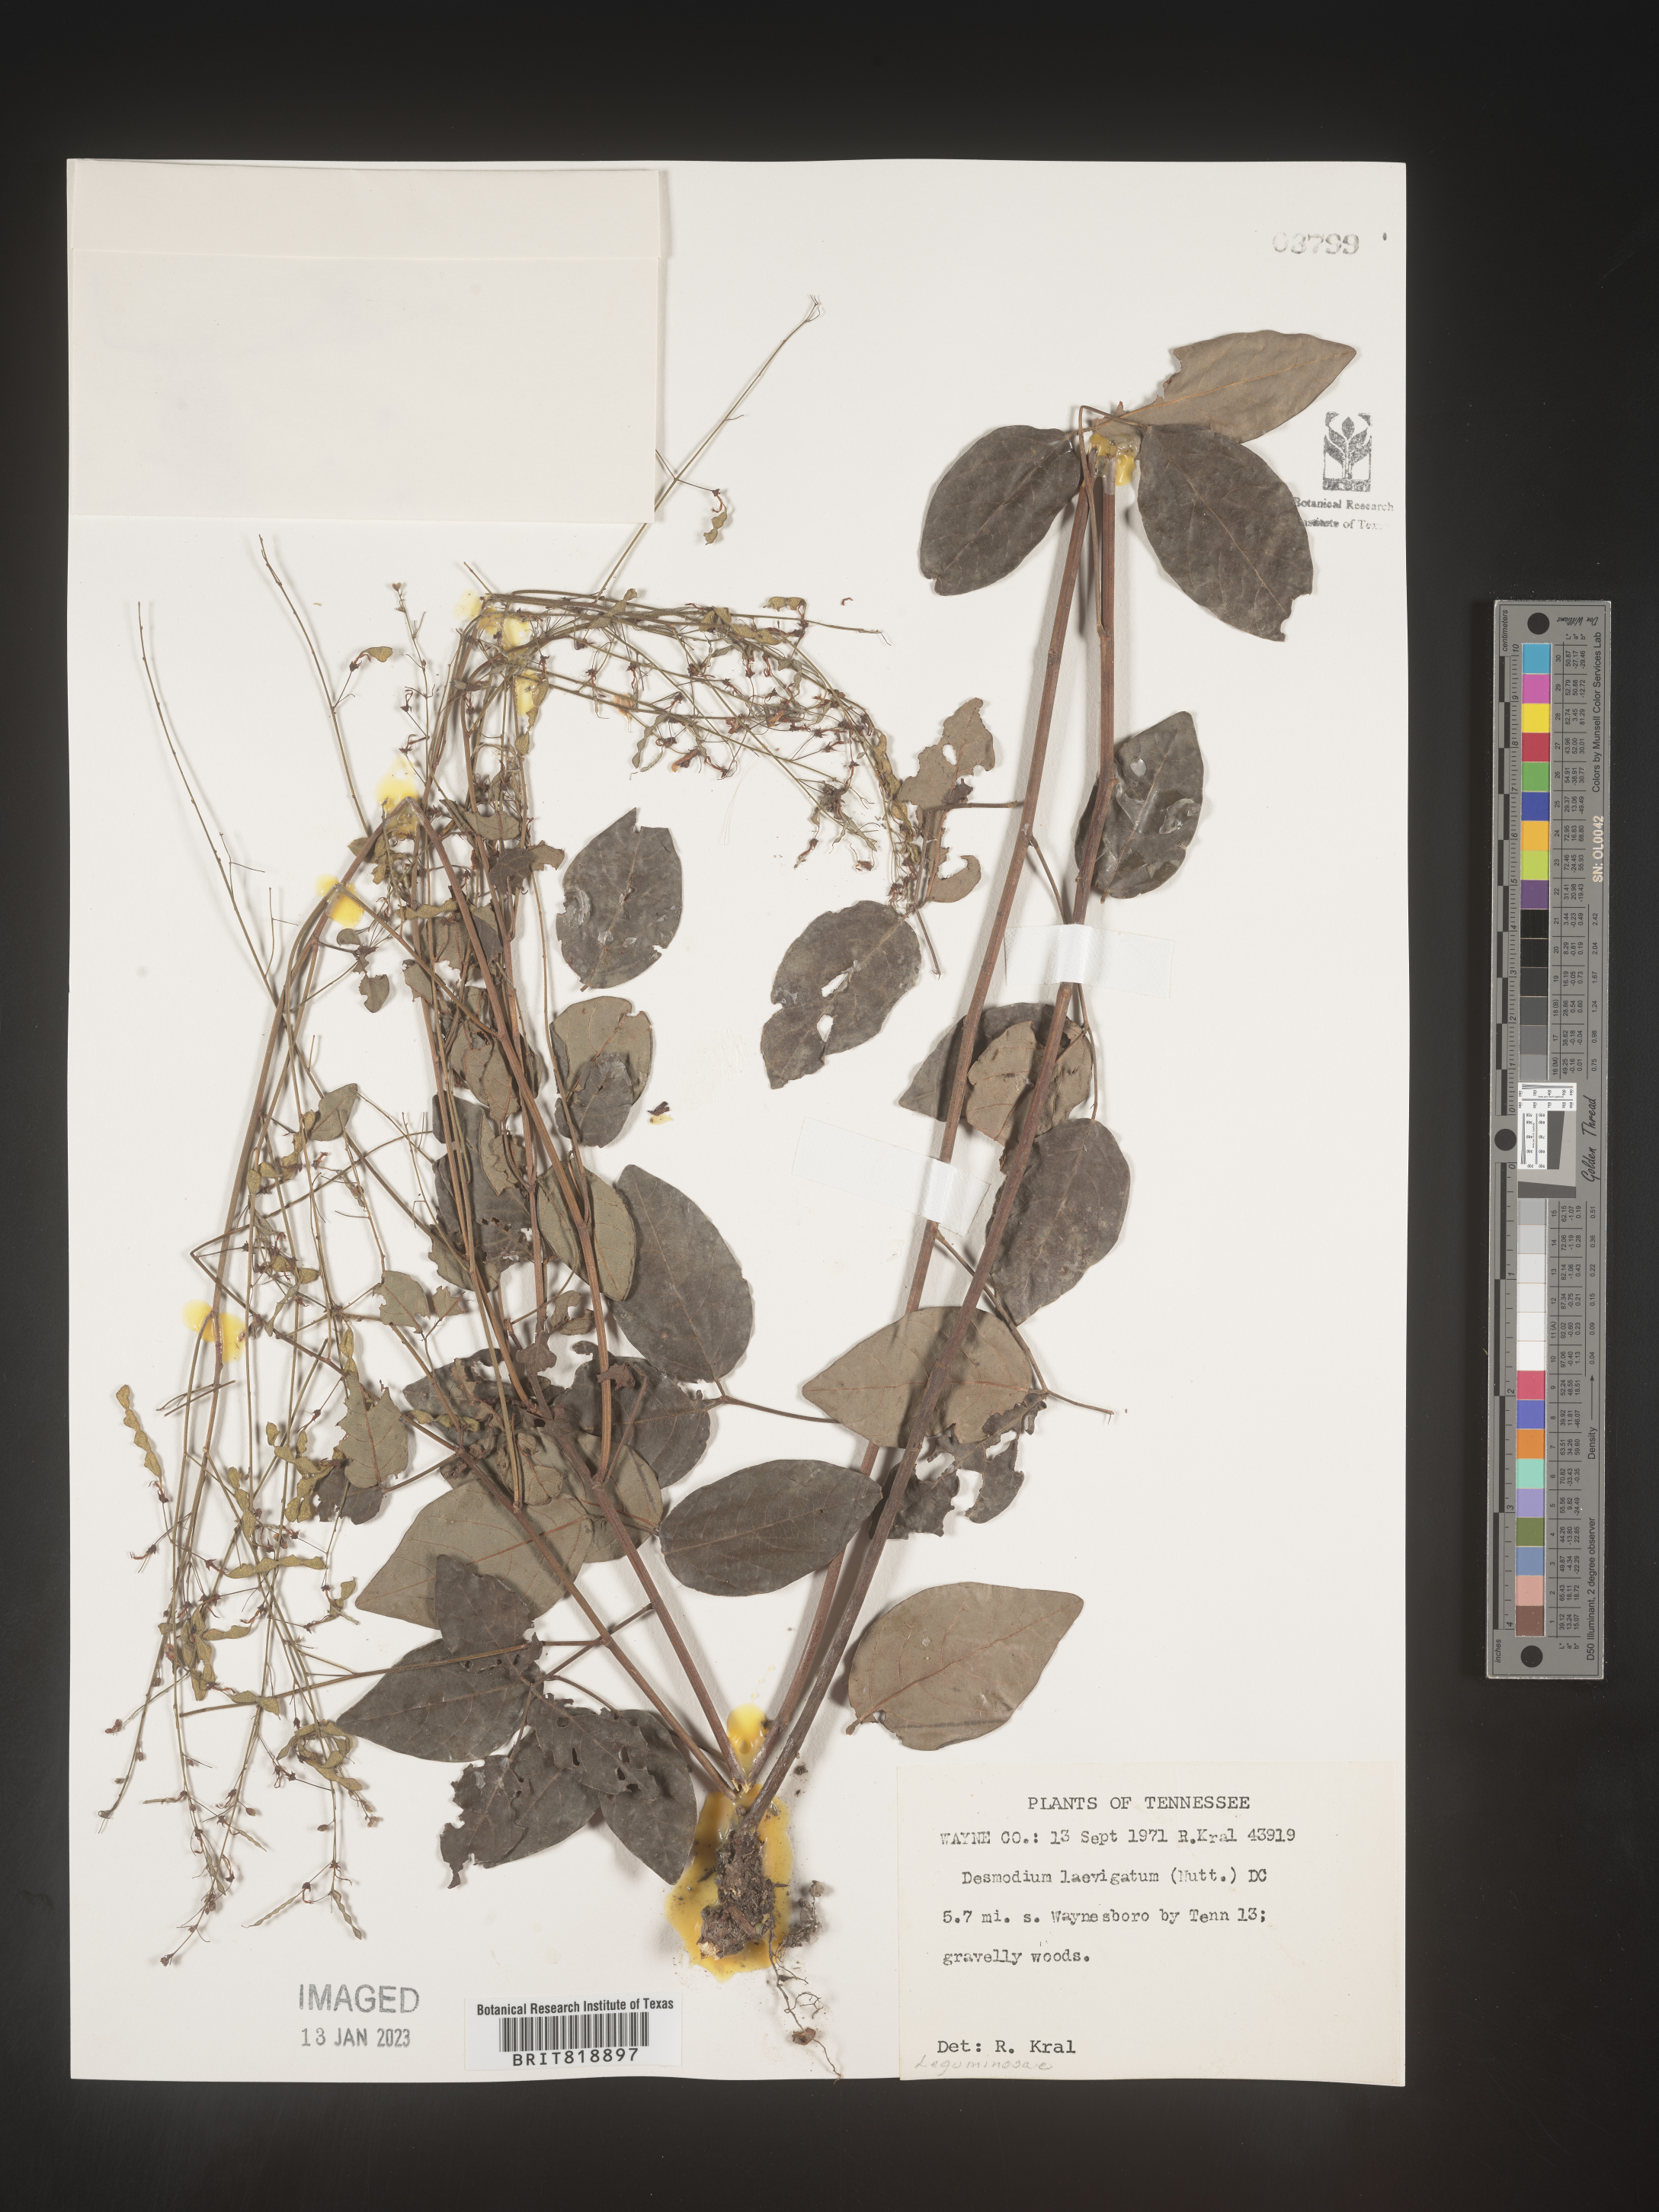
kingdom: Plantae
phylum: Tracheophyta
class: Magnoliopsida
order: Fabales
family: Fabaceae
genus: Desmodium
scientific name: Desmodium laevigatum
